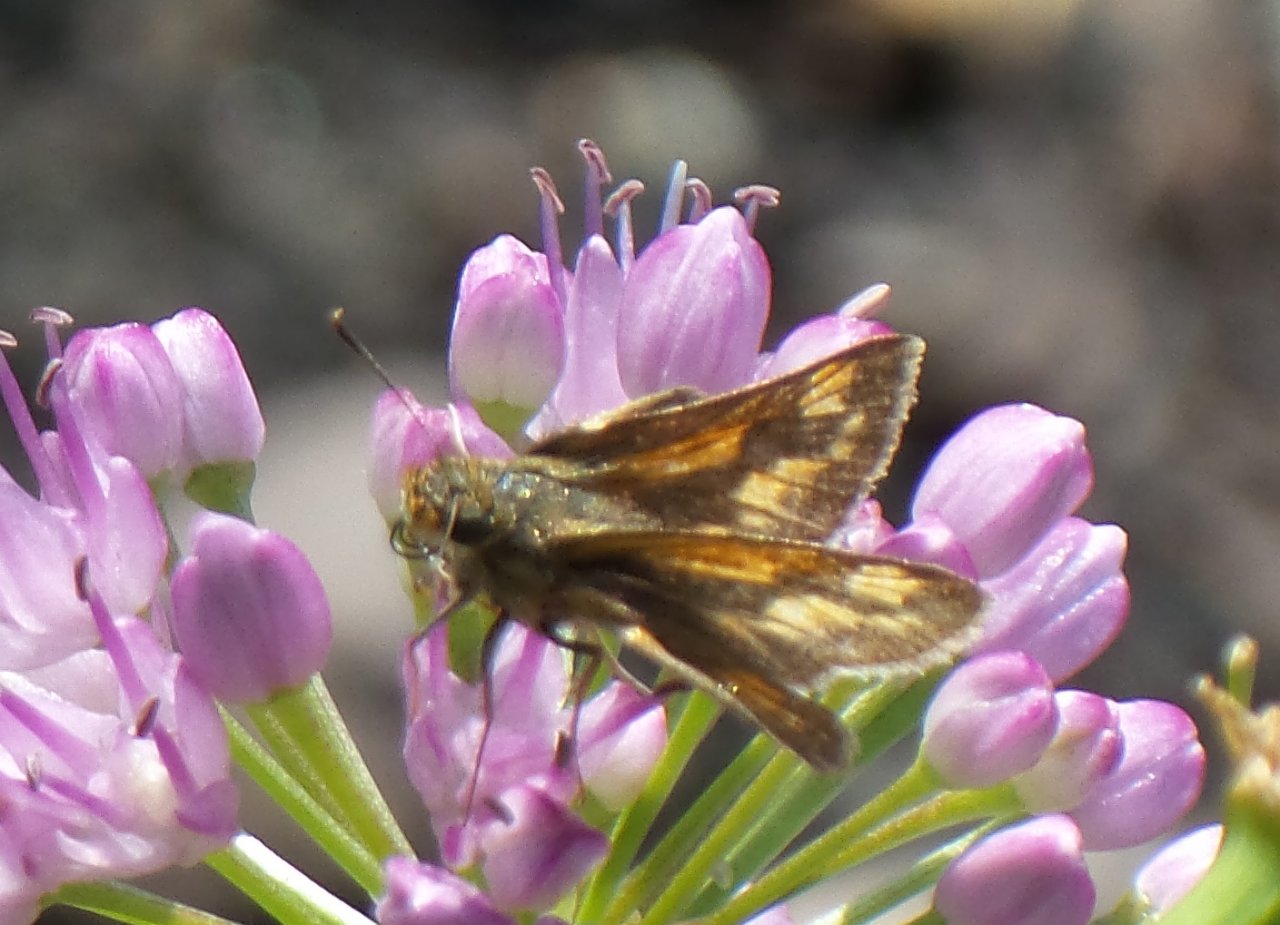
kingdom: Animalia
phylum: Arthropoda
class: Insecta
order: Lepidoptera
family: Hesperiidae
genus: Polites
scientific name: Polites
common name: Long Dash Skipper
